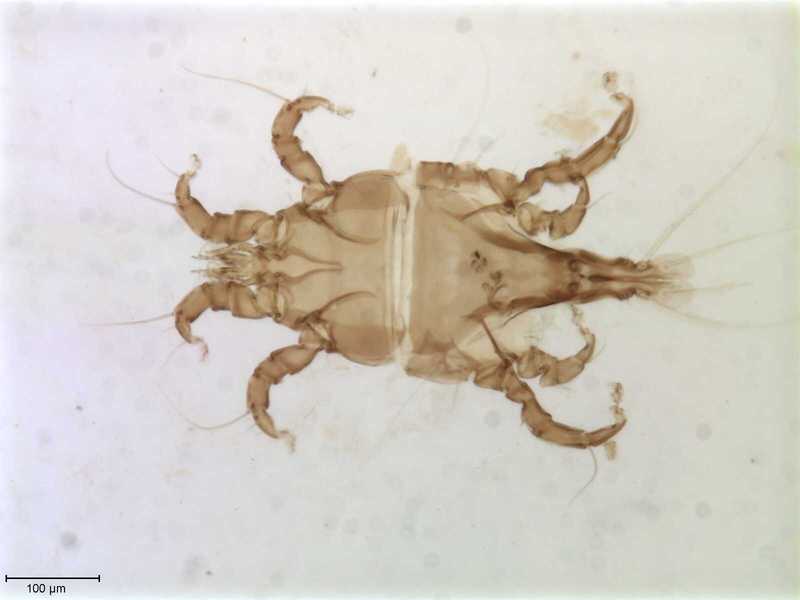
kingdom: Animalia
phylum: Arthropoda
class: Arachnida
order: Sarcoptiformes
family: Trouessartiidae
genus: Bicentralges
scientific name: Bicentralges
